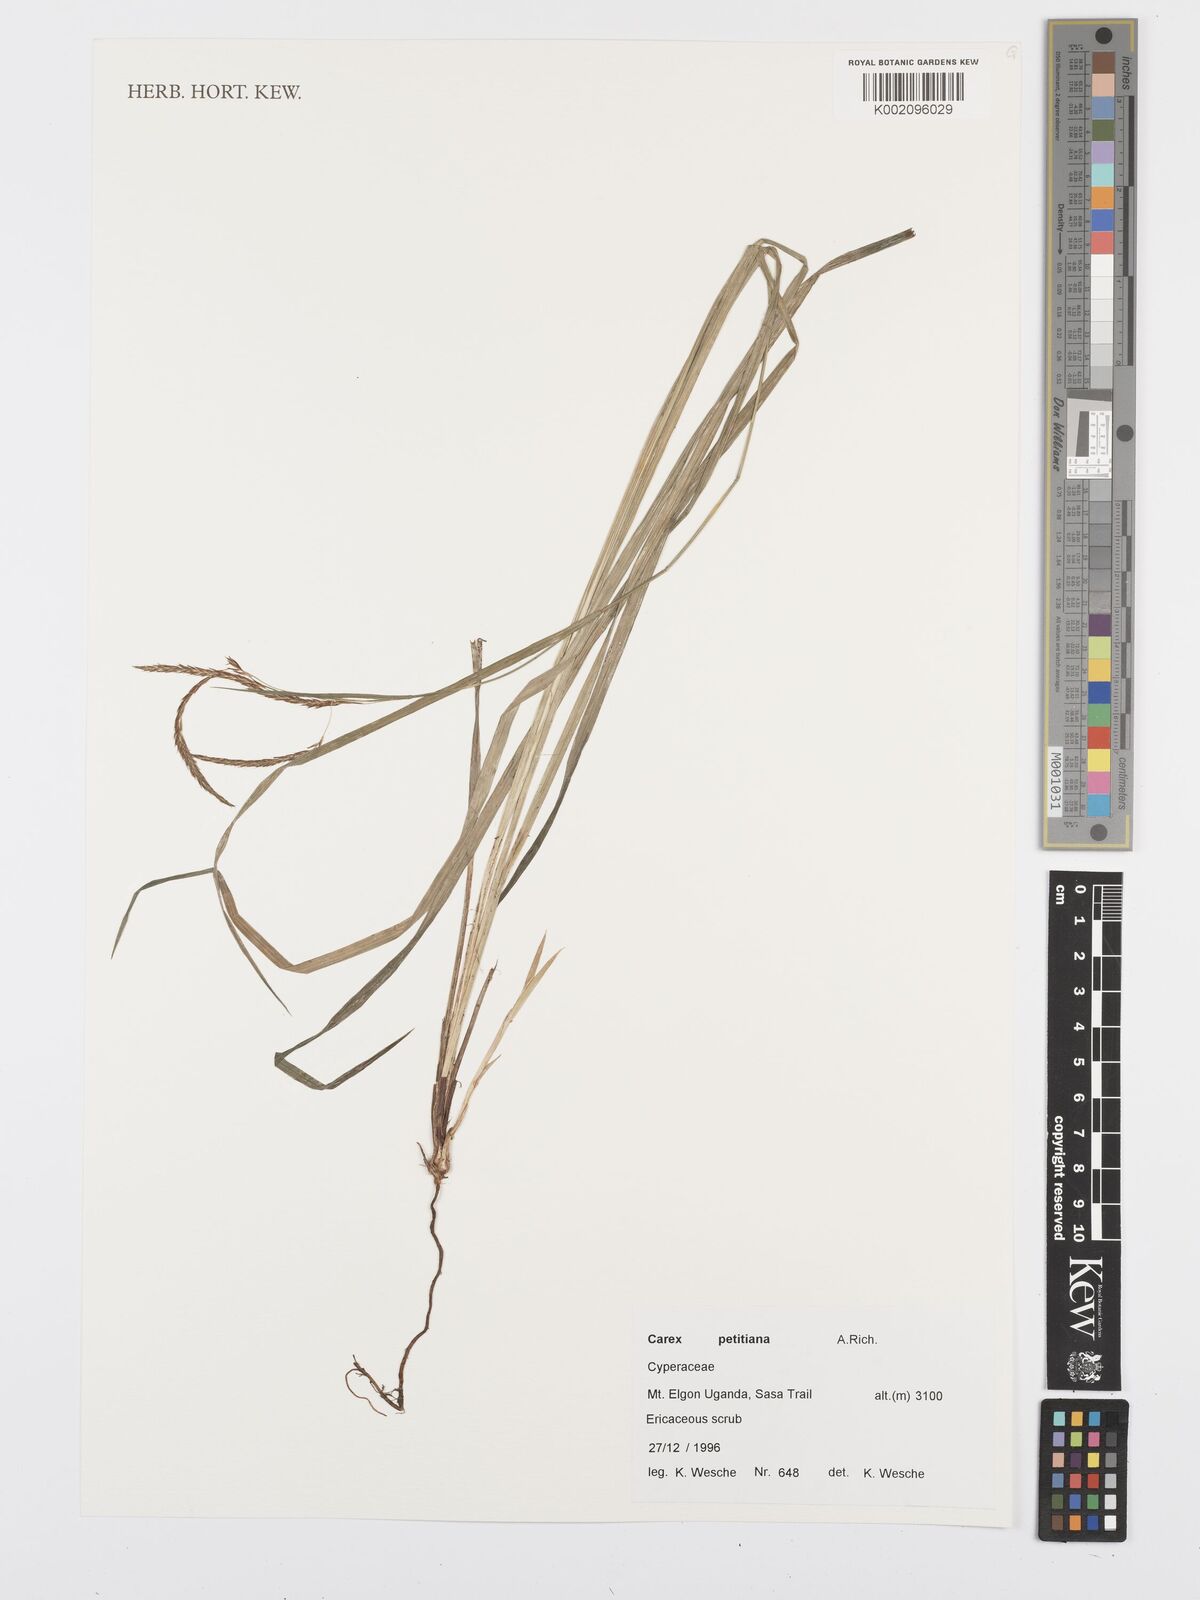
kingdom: Plantae
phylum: Tracheophyta
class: Liliopsida
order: Poales
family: Cyperaceae
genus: Carex
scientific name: Carex petitiana
